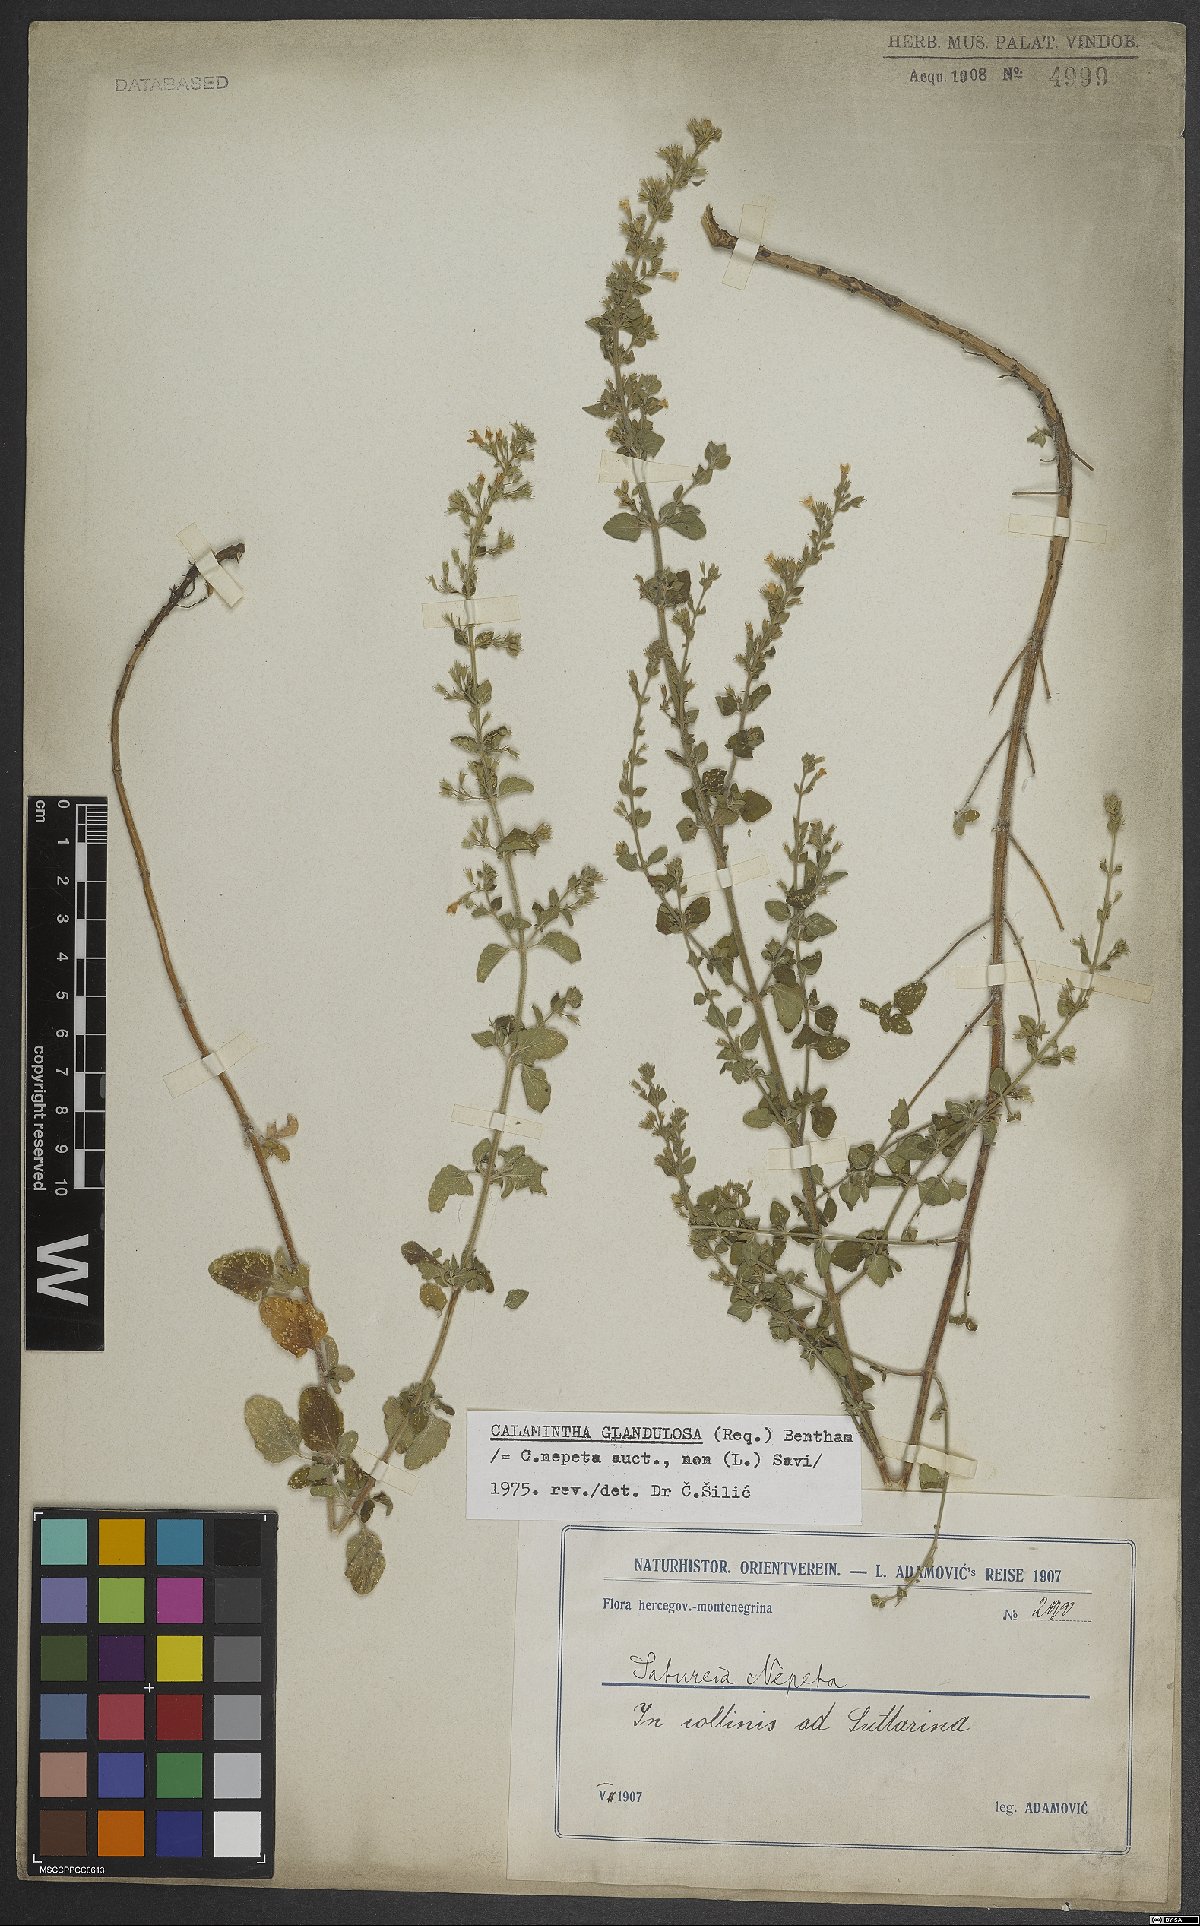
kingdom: Plantae
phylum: Tracheophyta
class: Magnoliopsida
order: Lamiales
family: Lamiaceae
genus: Clinopodium
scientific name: Clinopodium nepeta
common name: Lesser calamint
